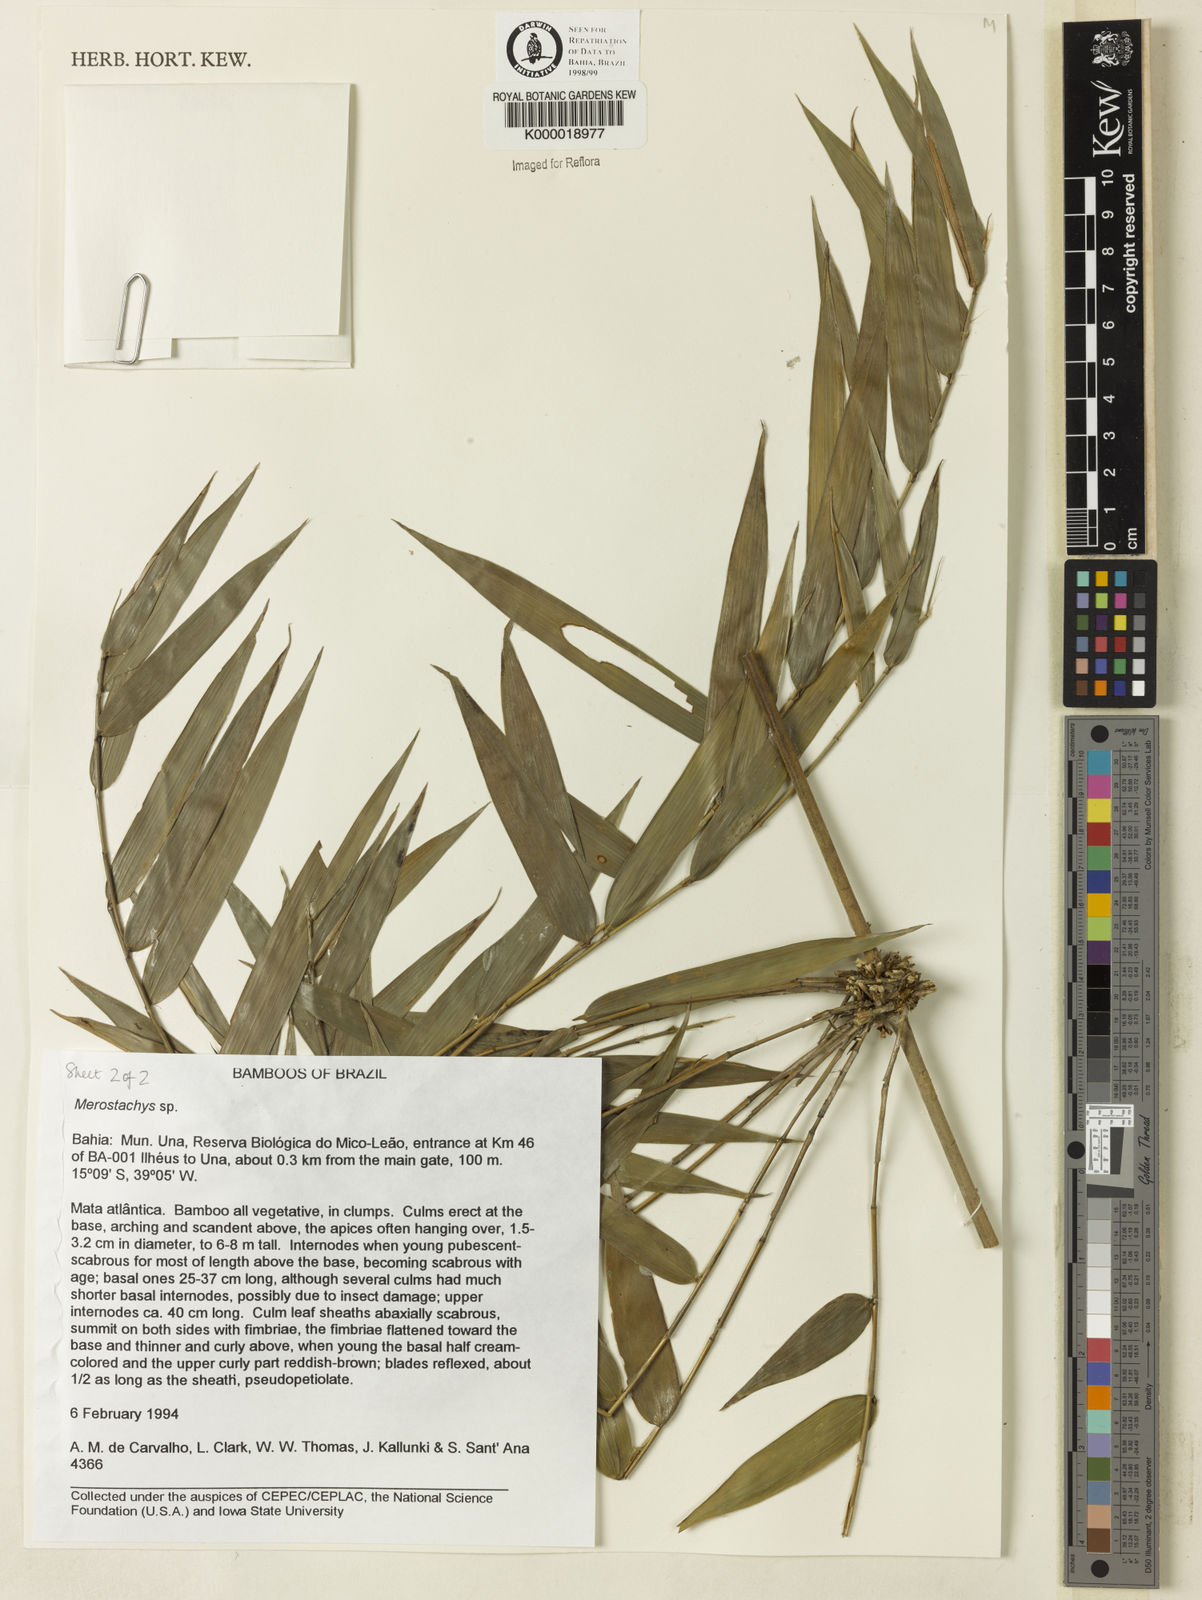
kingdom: Plantae
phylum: Tracheophyta
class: Liliopsida
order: Poales
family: Poaceae
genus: Merostachys
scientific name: Merostachys
